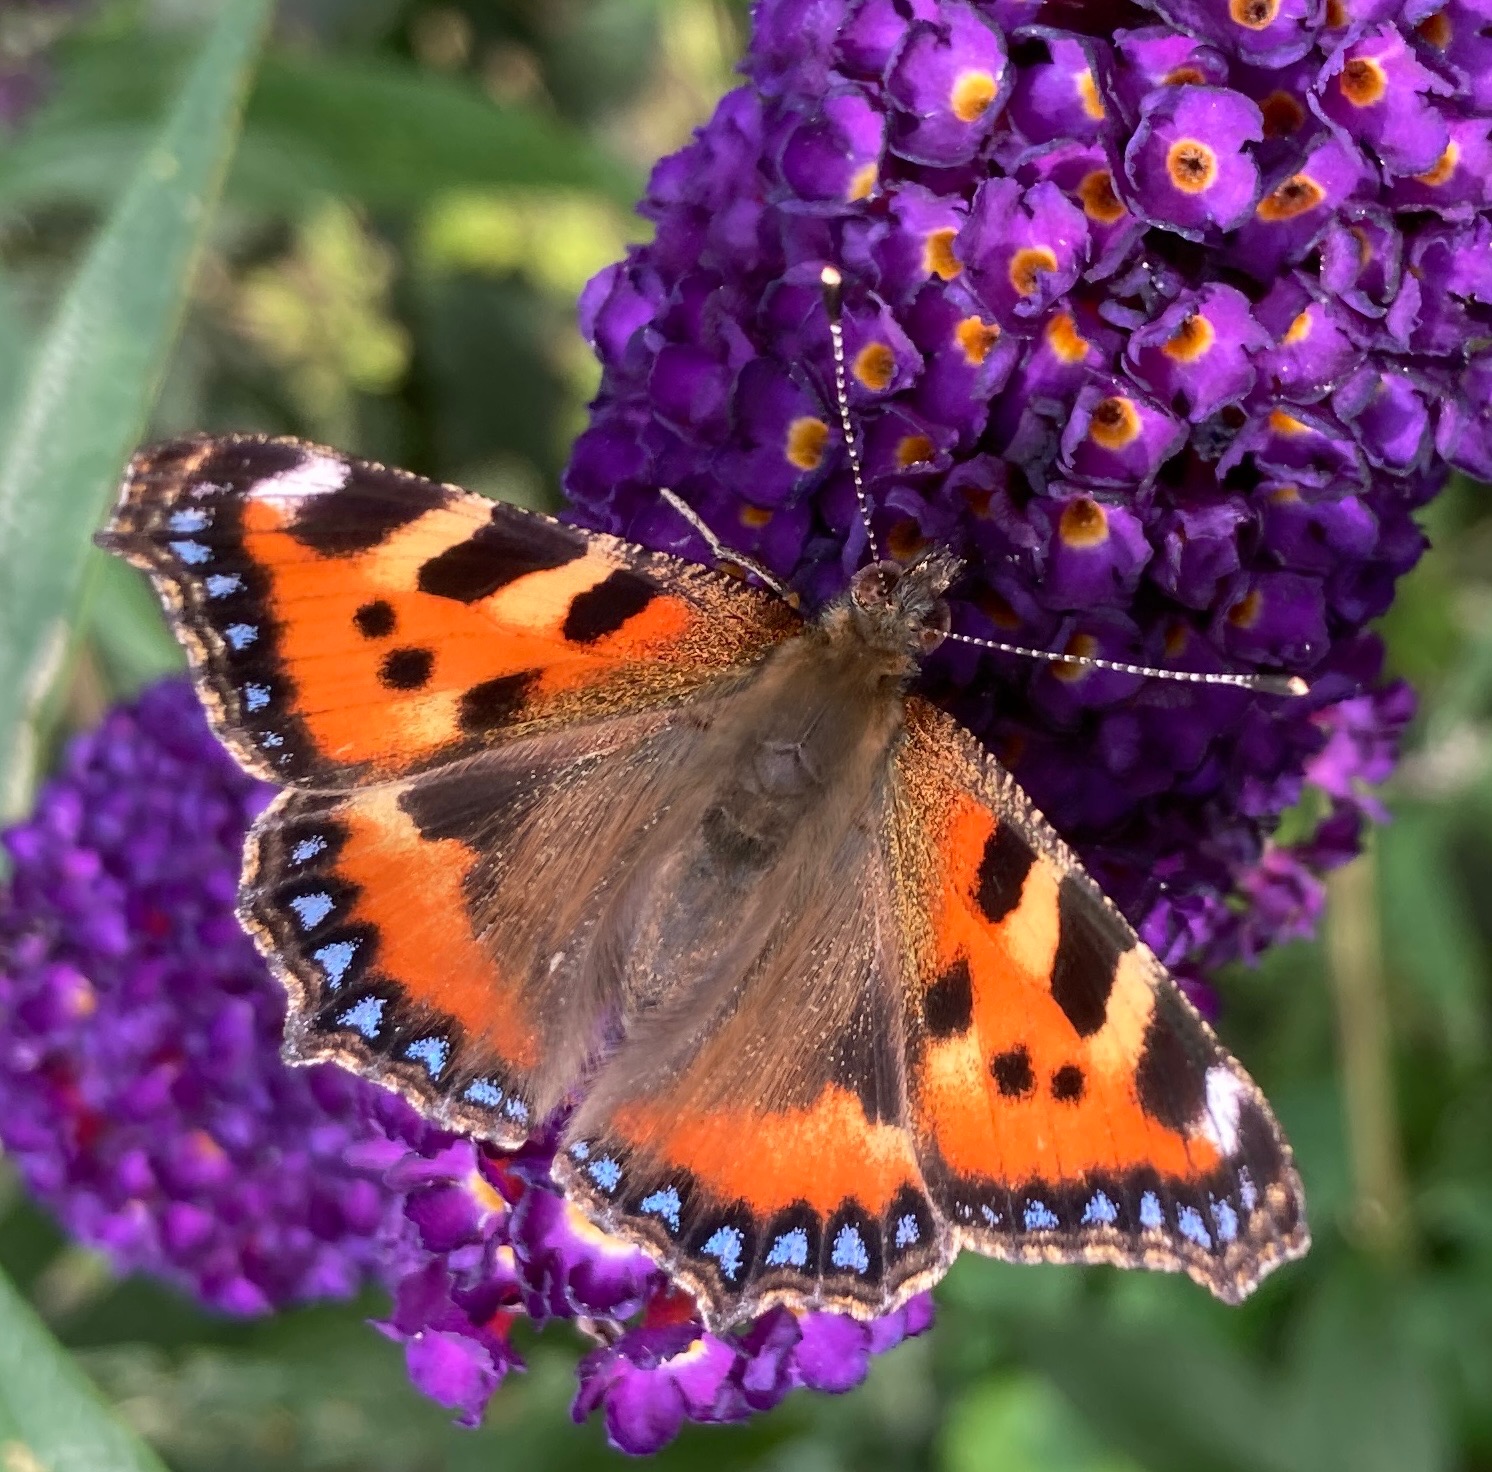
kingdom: Animalia
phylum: Arthropoda
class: Insecta
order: Lepidoptera
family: Nymphalidae
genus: Aglais
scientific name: Aglais urticae
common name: Nældens takvinge
